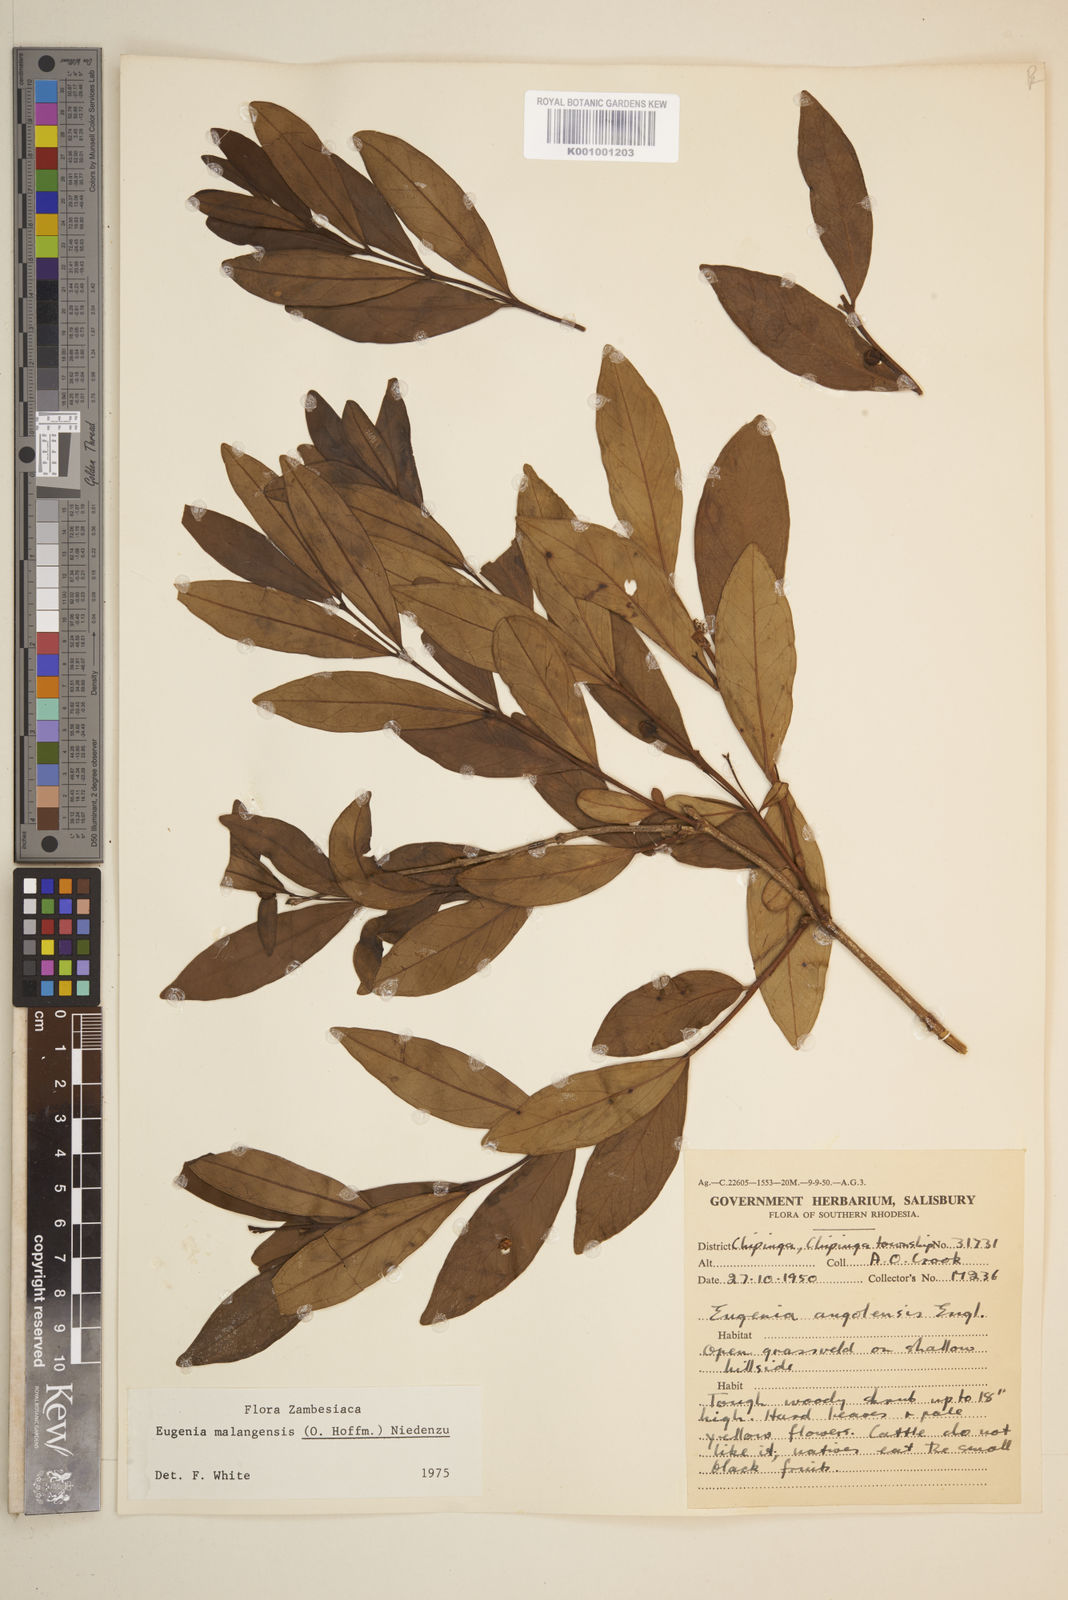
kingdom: Plantae
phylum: Tracheophyta
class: Magnoliopsida
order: Myrtales
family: Myrtaceae
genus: Eugenia
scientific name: Eugenia malangensis
